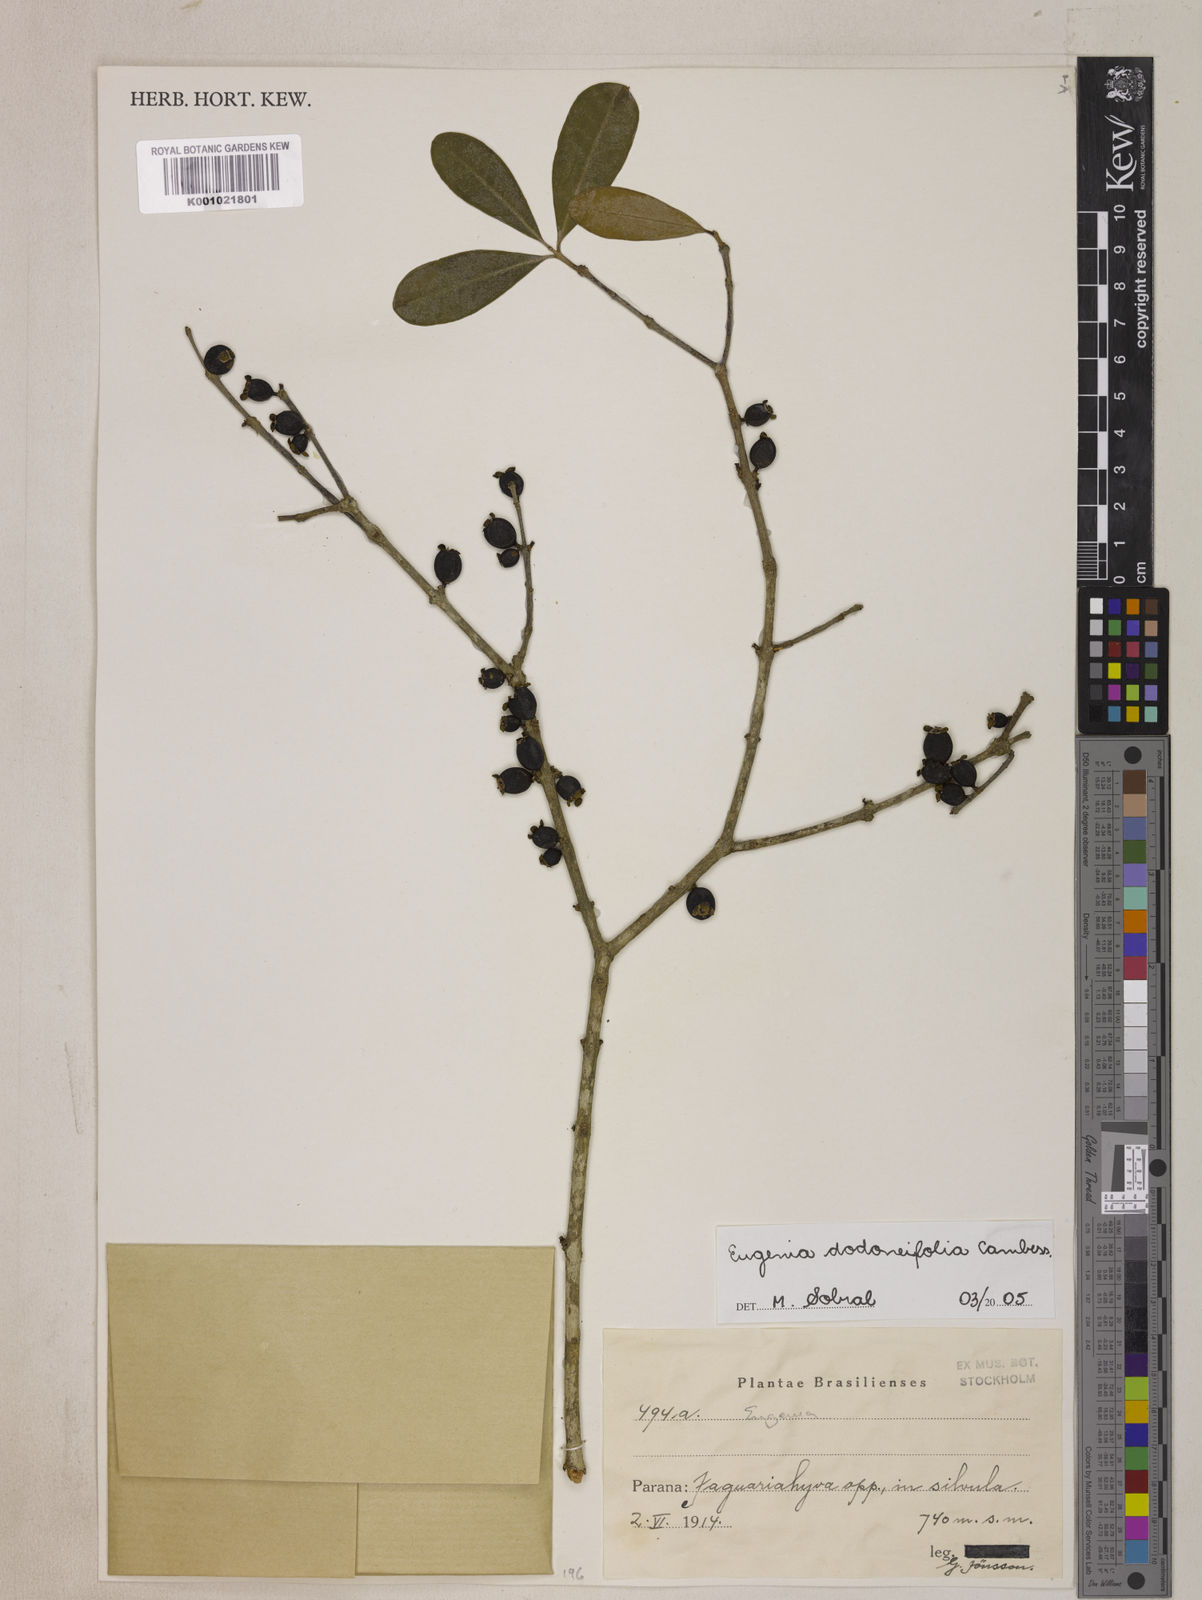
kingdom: Plantae
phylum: Tracheophyta
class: Magnoliopsida
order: Myrtales
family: Myrtaceae
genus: Eugenia
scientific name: Eugenia dodonaeifolia
